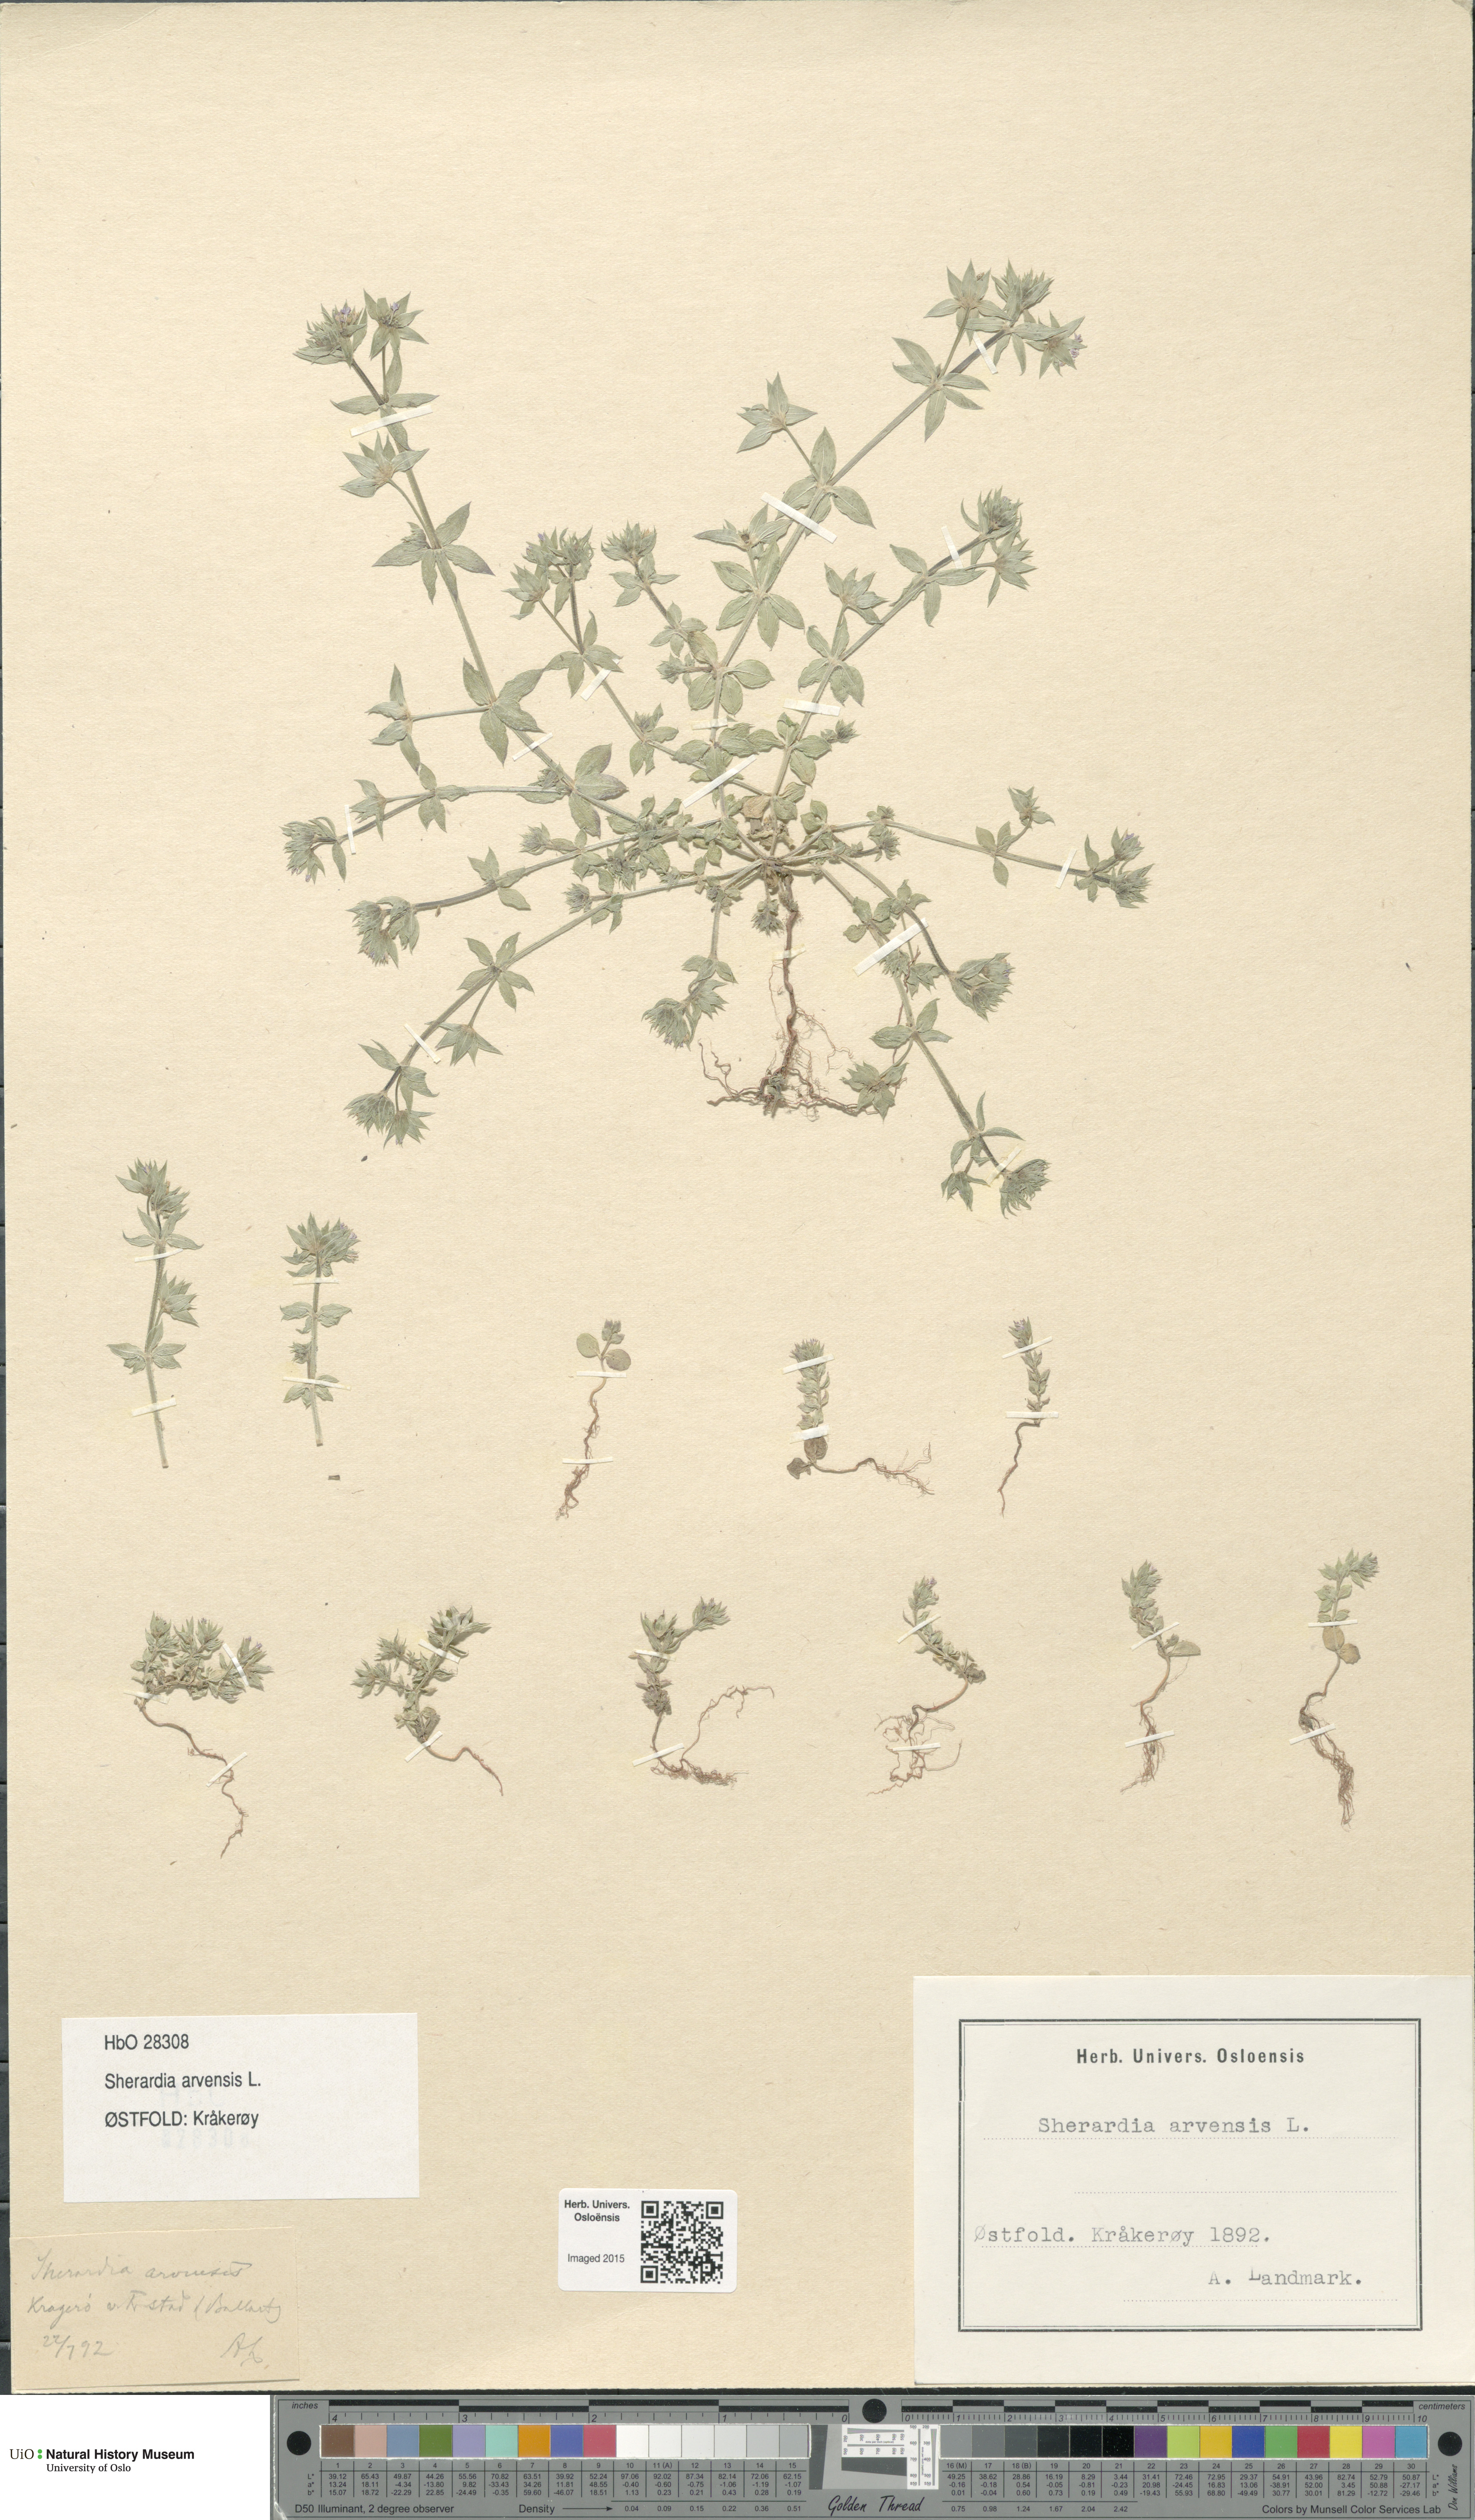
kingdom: Plantae
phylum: Tracheophyta
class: Magnoliopsida
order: Gentianales
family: Rubiaceae
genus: Sherardia
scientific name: Sherardia arvensis
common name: Field madder
